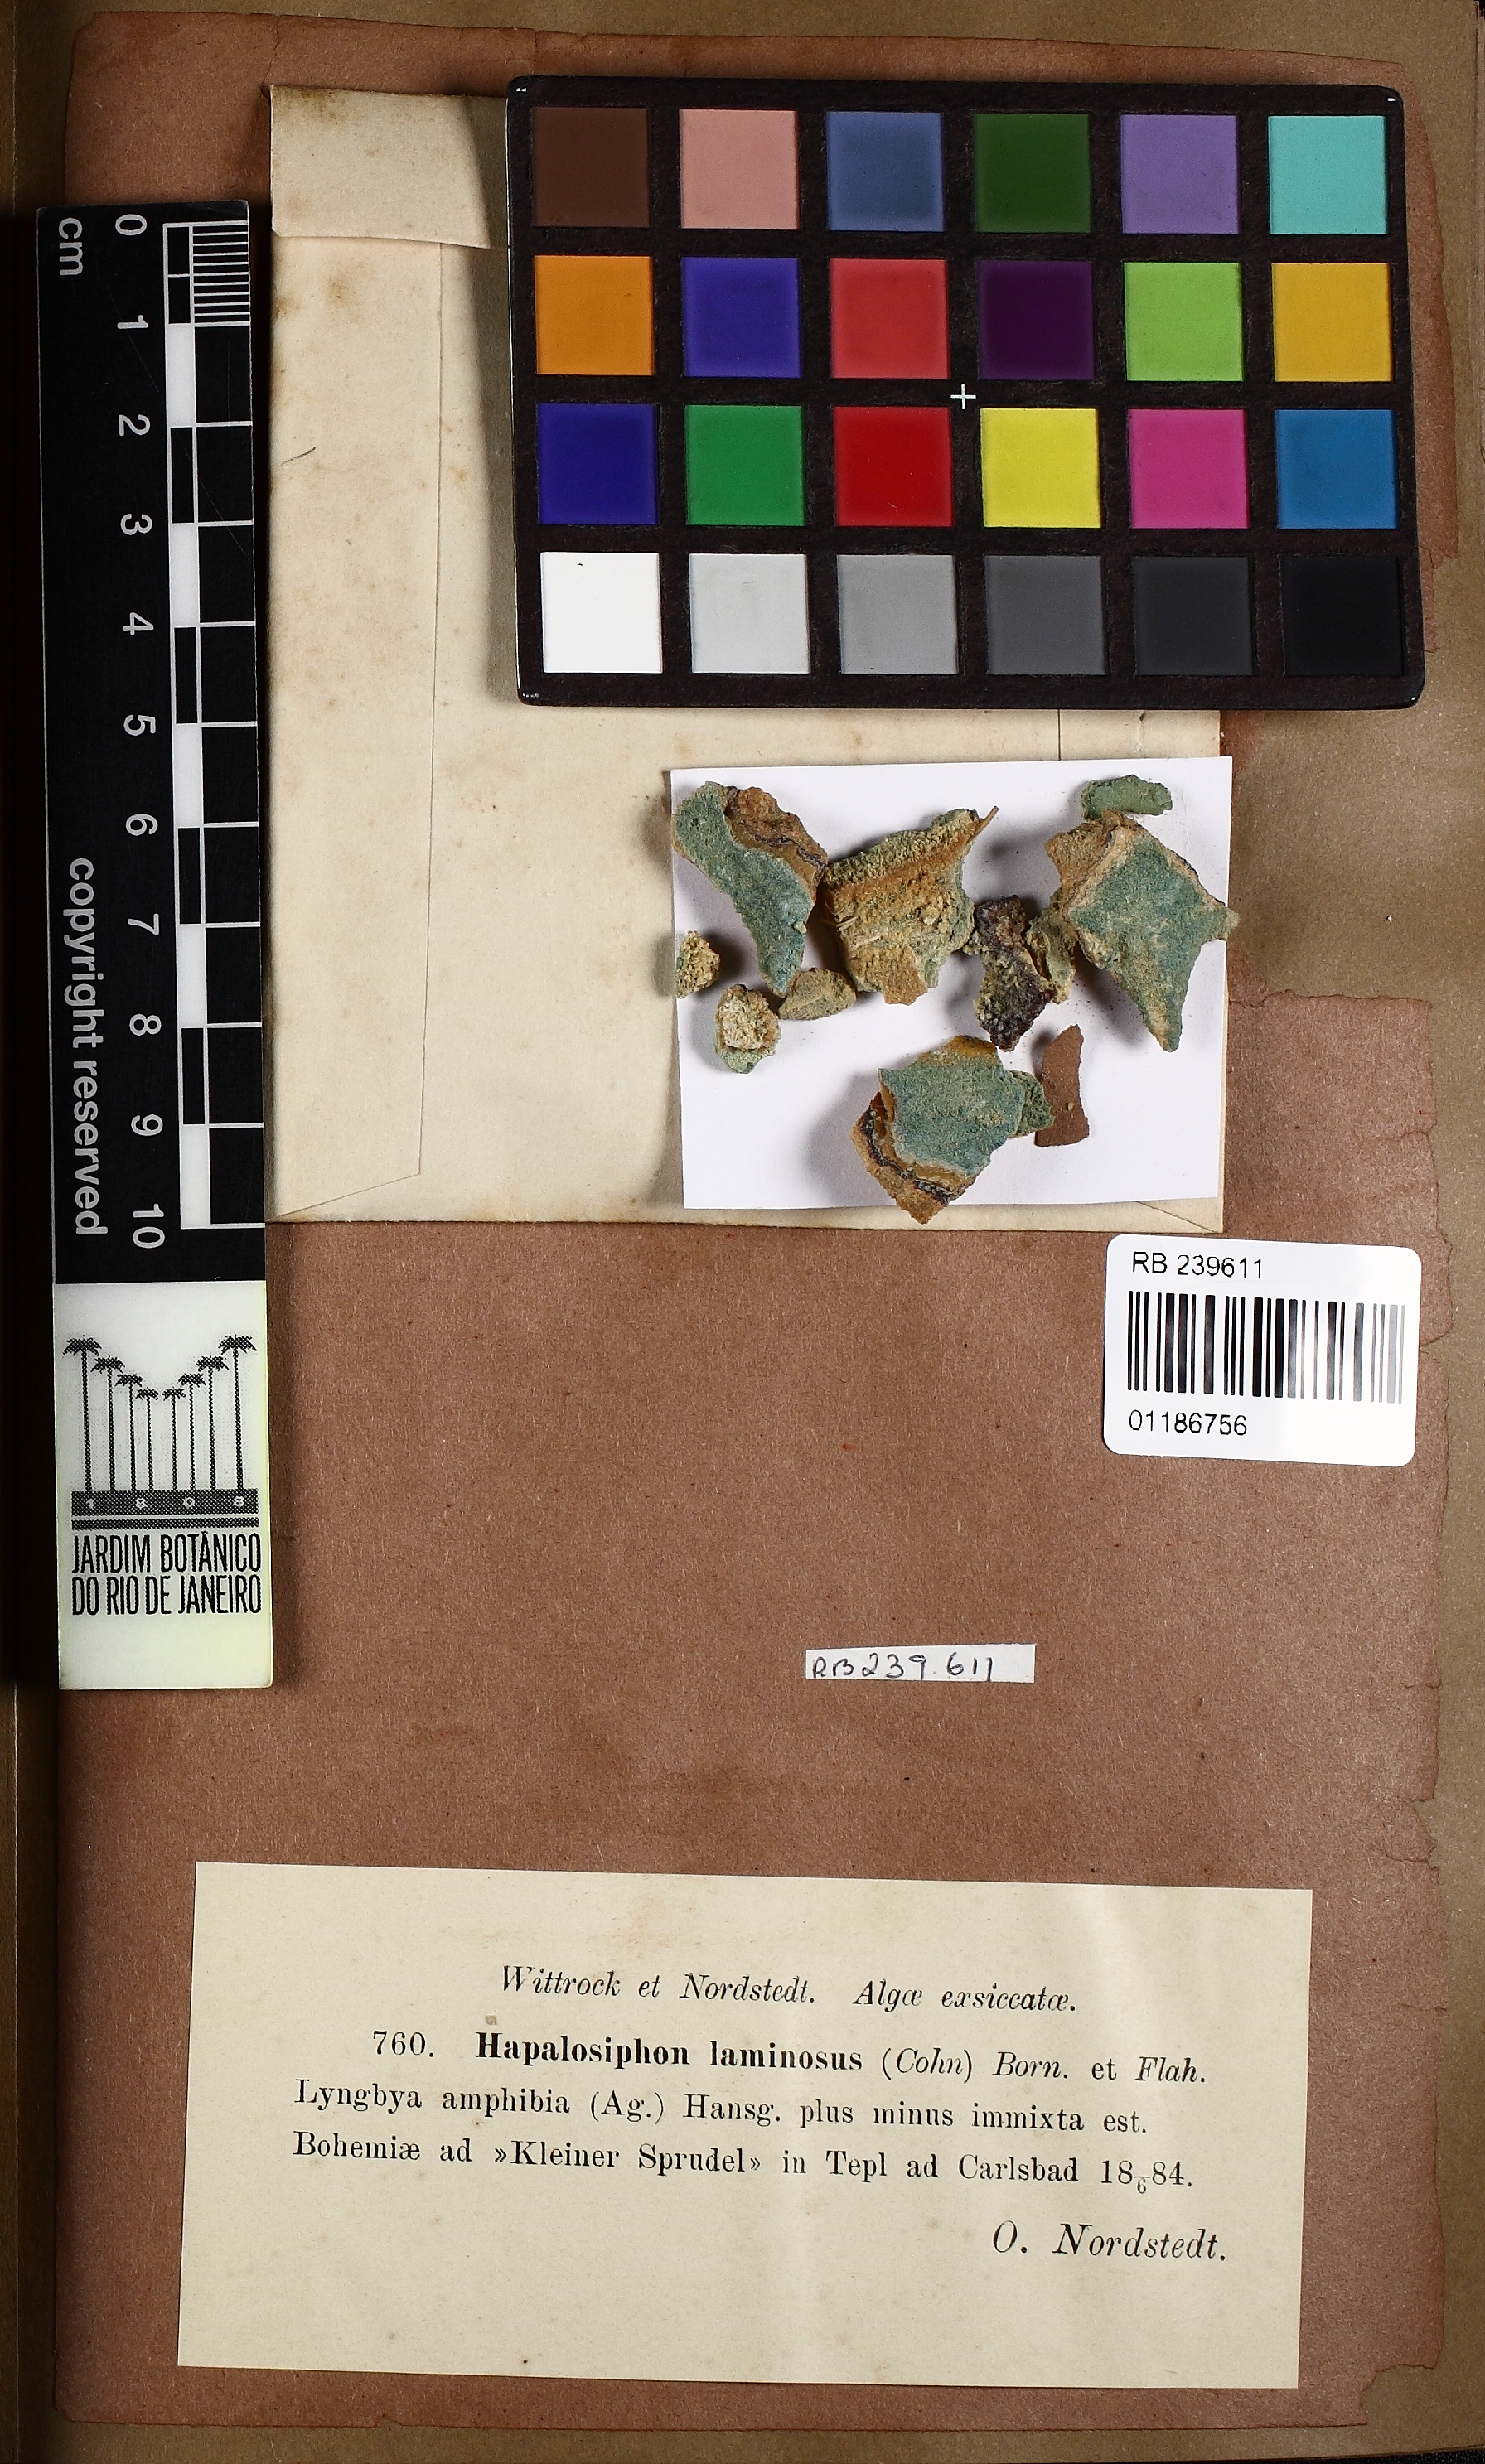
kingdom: Bacteria
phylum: Cyanobacteria
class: Cyanobacteriia
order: Cyanobacteriales
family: Hapalosiphonaceae
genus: Hapalosiphon
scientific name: Hapalosiphon laminosus
